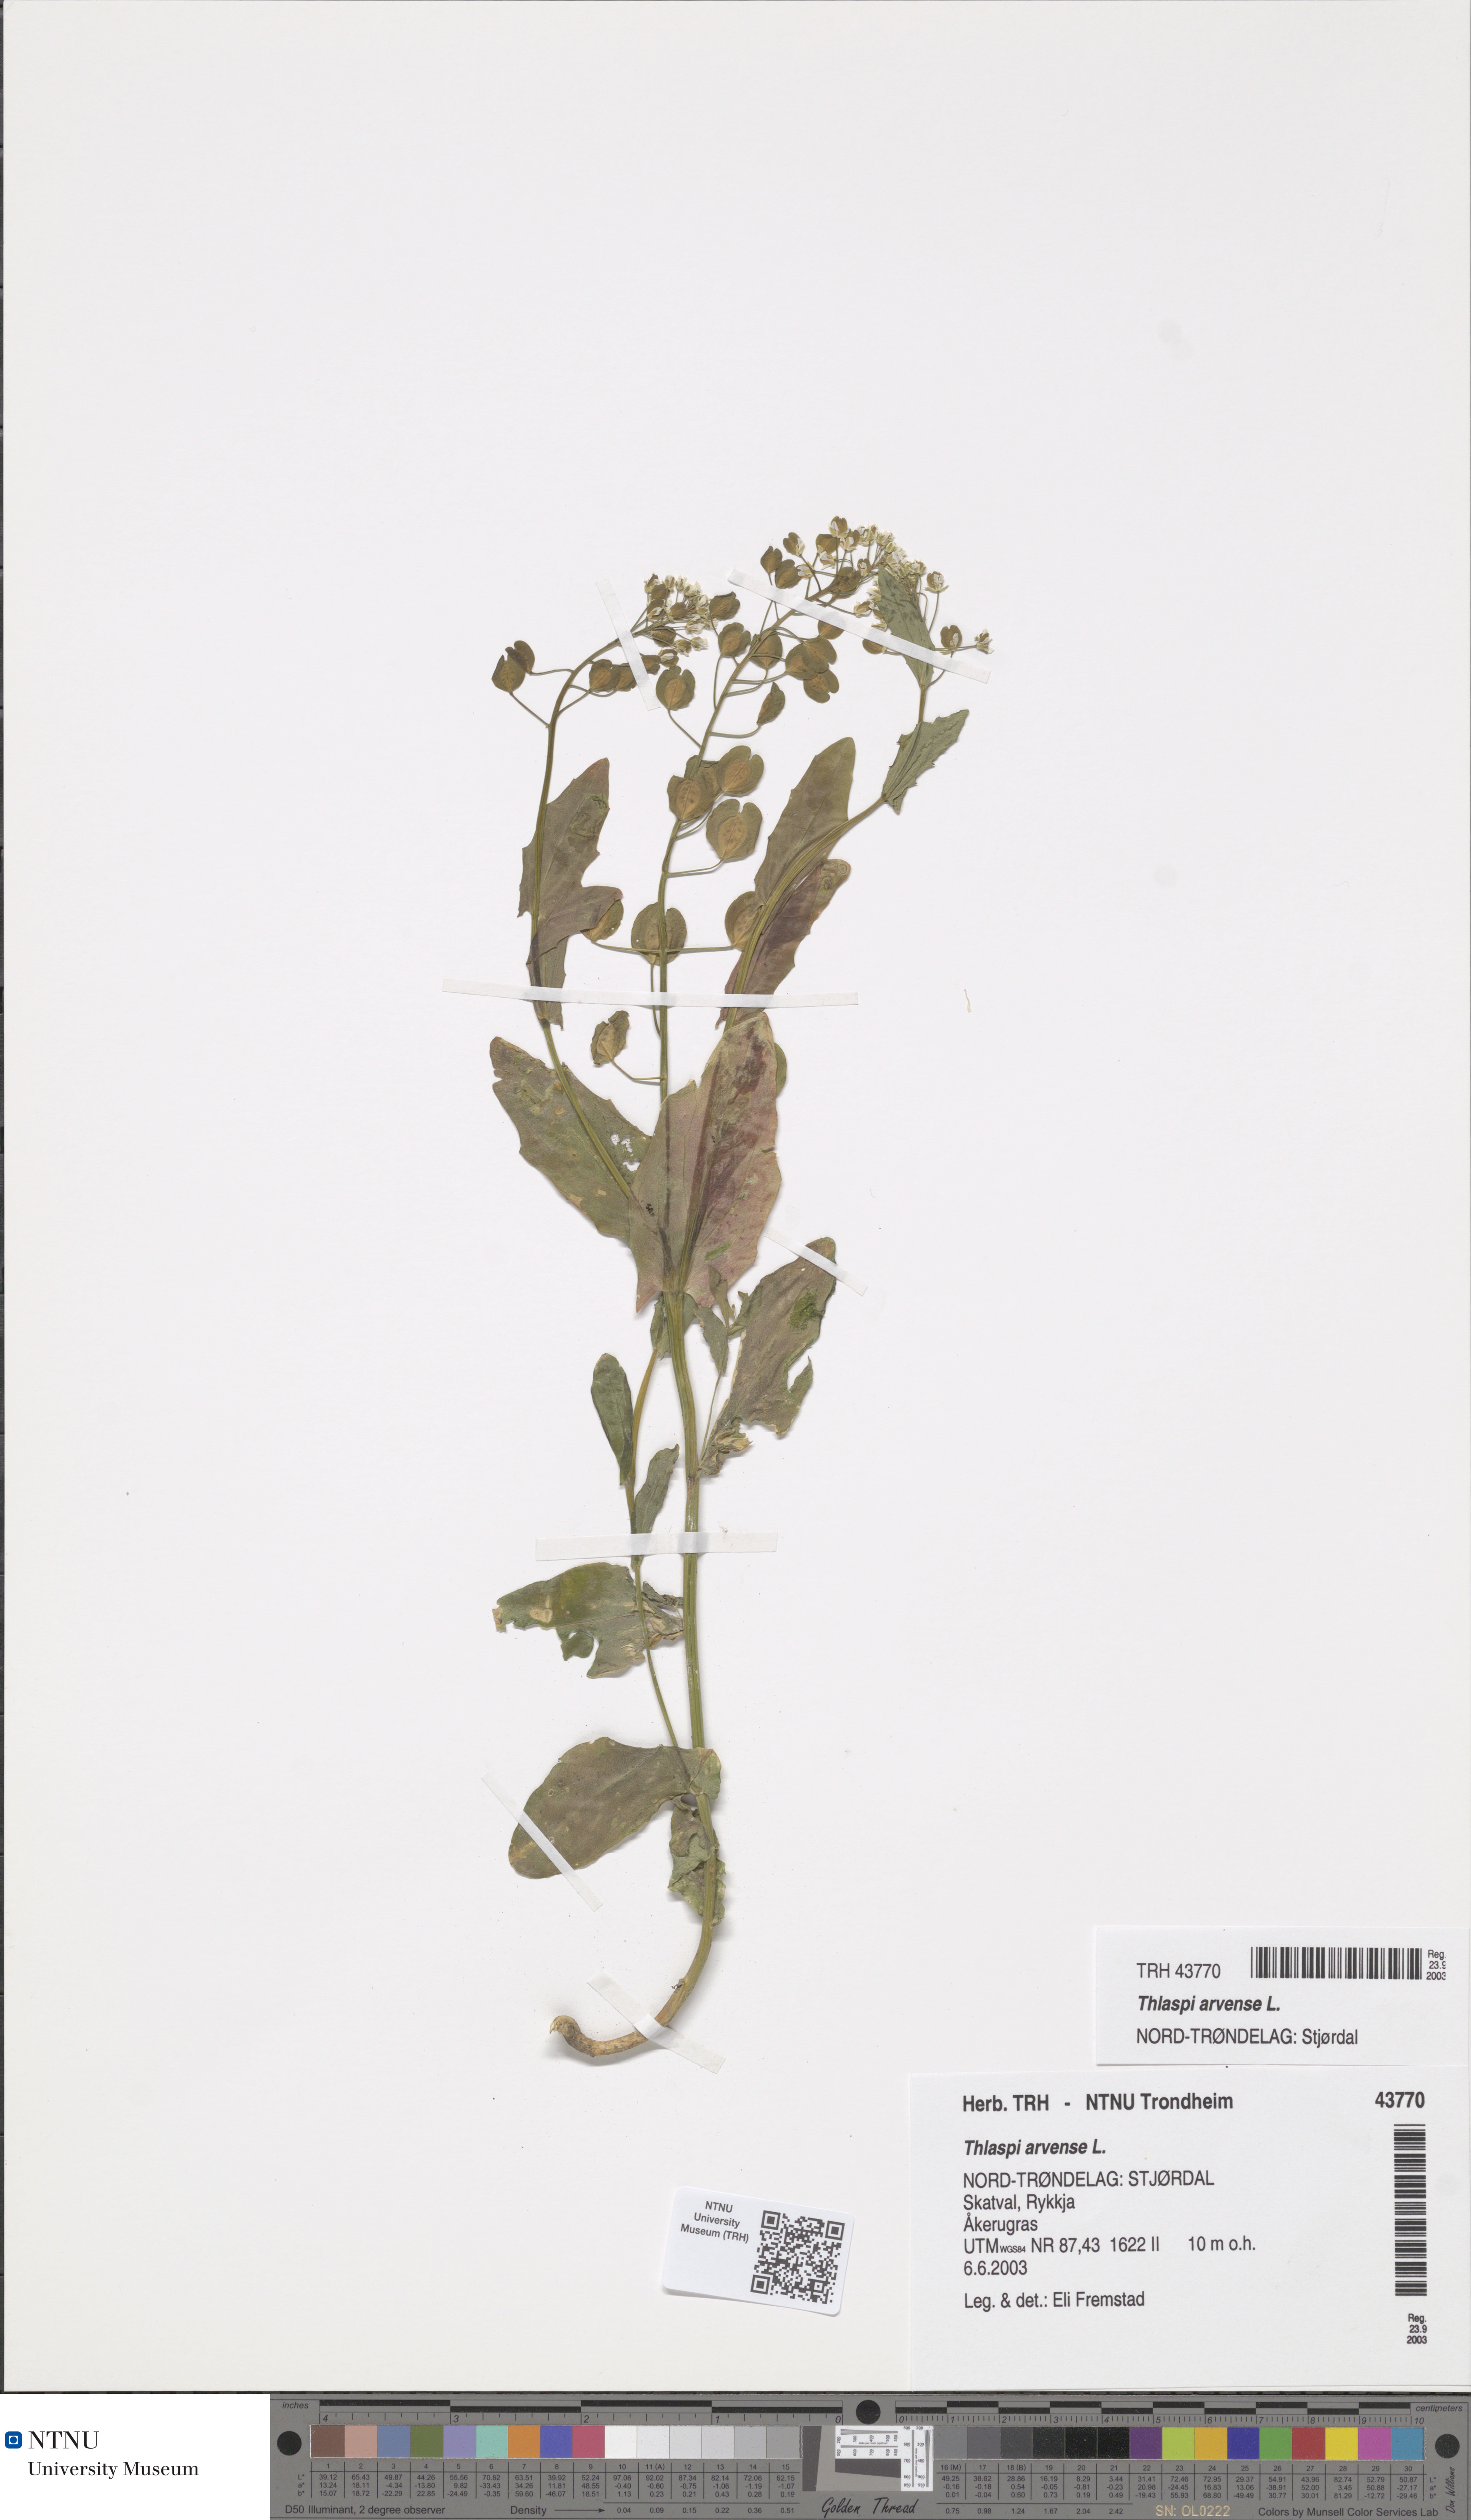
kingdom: Plantae
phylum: Tracheophyta
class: Magnoliopsida
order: Brassicales
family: Brassicaceae
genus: Thlaspi
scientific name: Thlaspi arvense
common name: Field pennycress
